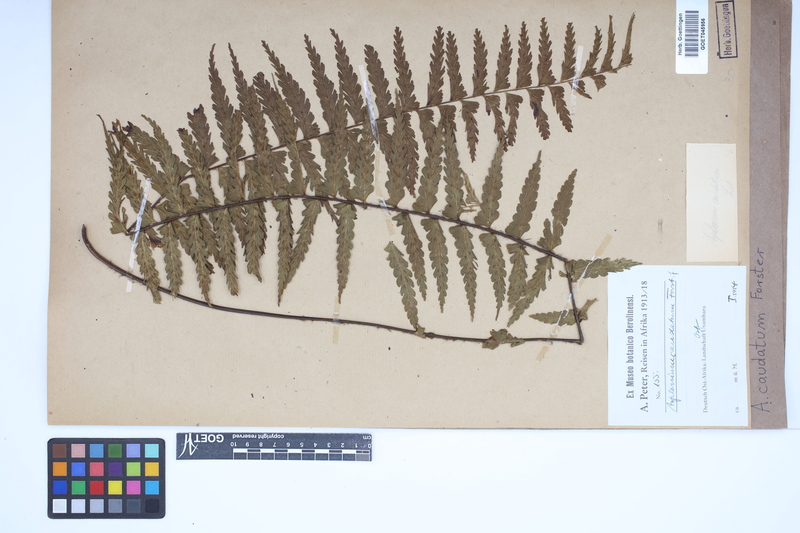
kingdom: Plantae
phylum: Tracheophyta
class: Polypodiopsida
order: Polypodiales
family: Aspleniaceae
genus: Asplenium
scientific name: Asplenium caudatum
